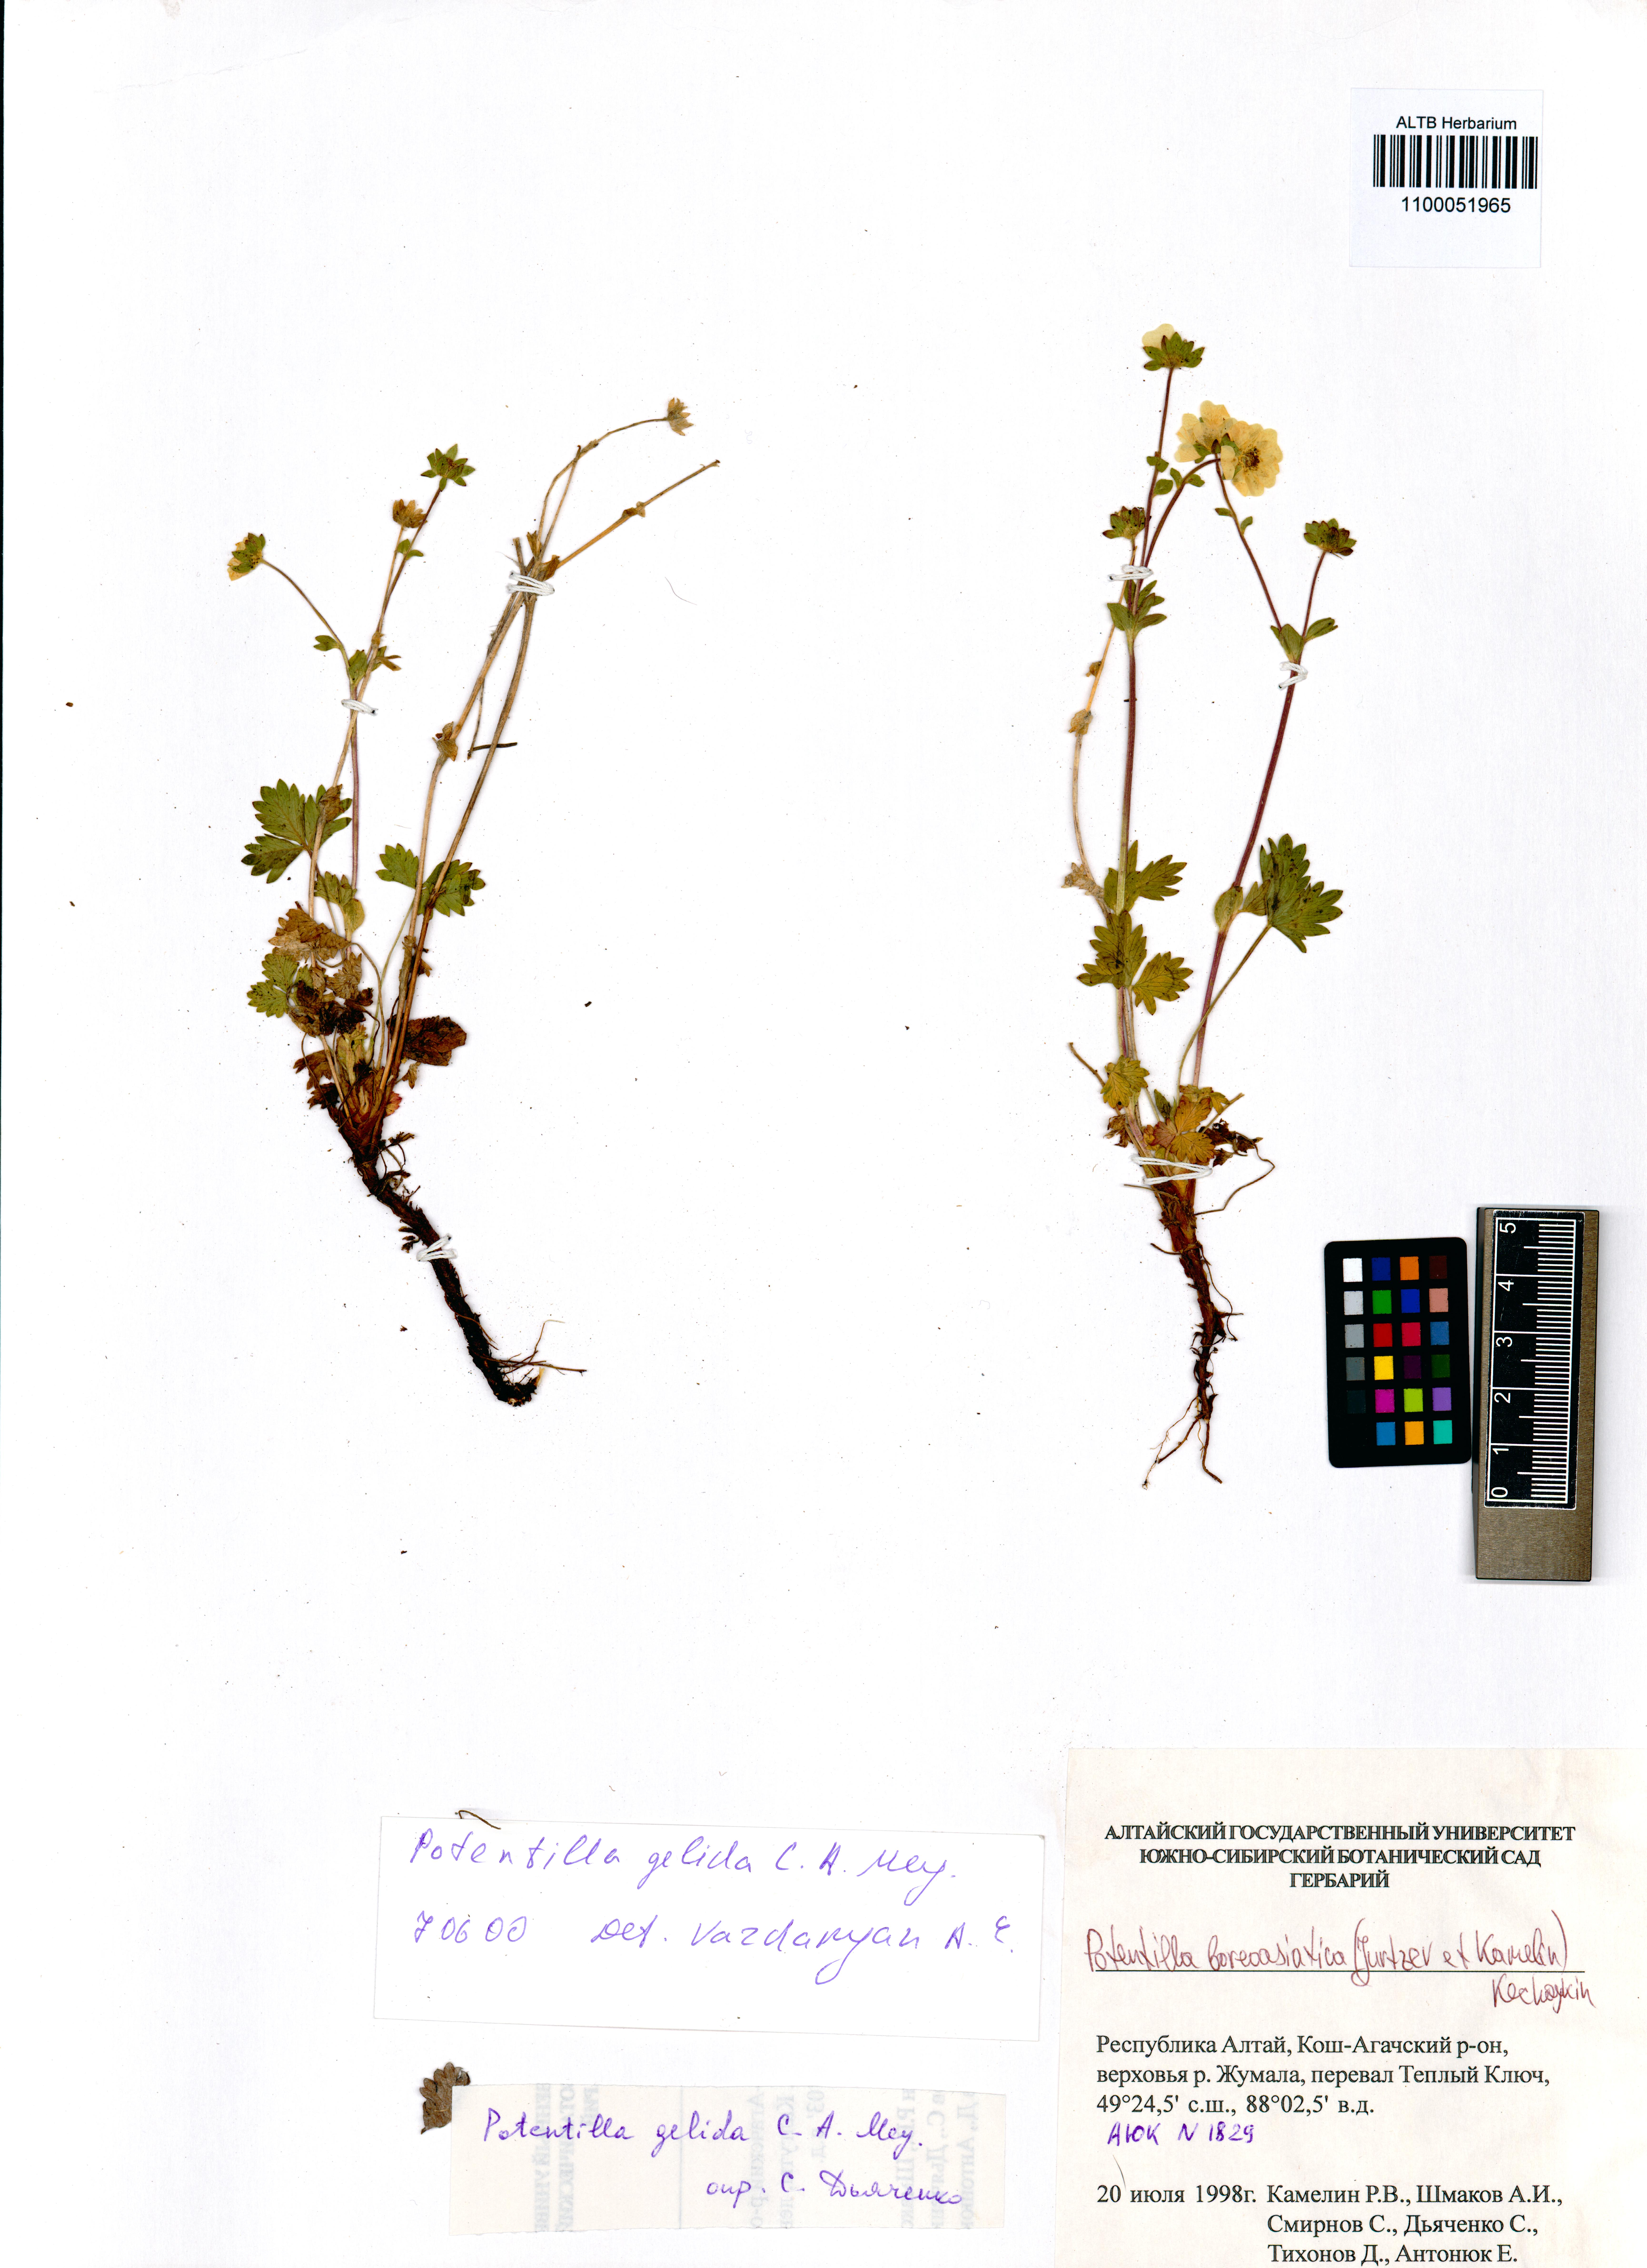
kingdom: Plantae
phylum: Tracheophyta
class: Magnoliopsida
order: Rosales
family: Rosaceae
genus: Potentilla
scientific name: Potentilla
